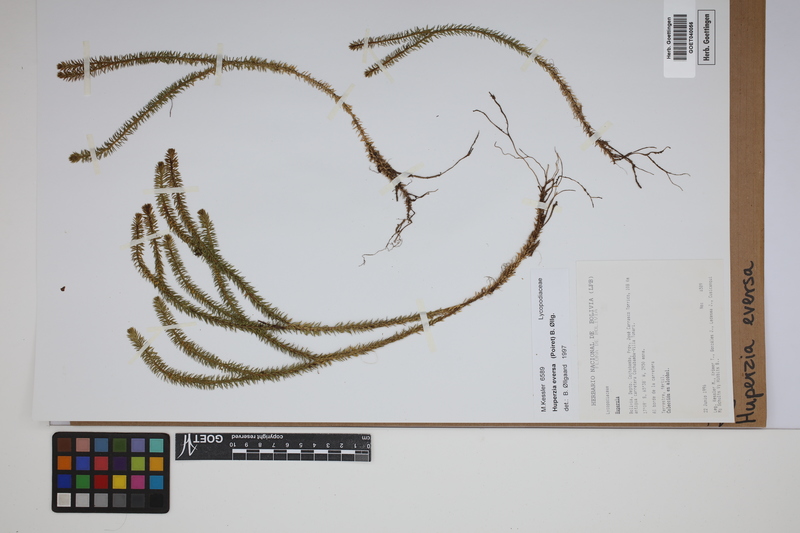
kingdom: Plantae
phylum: Tracheophyta
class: Lycopodiopsida
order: Lycopodiales
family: Lycopodiaceae
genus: Phlegmariurus
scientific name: Phlegmariurus eversus
